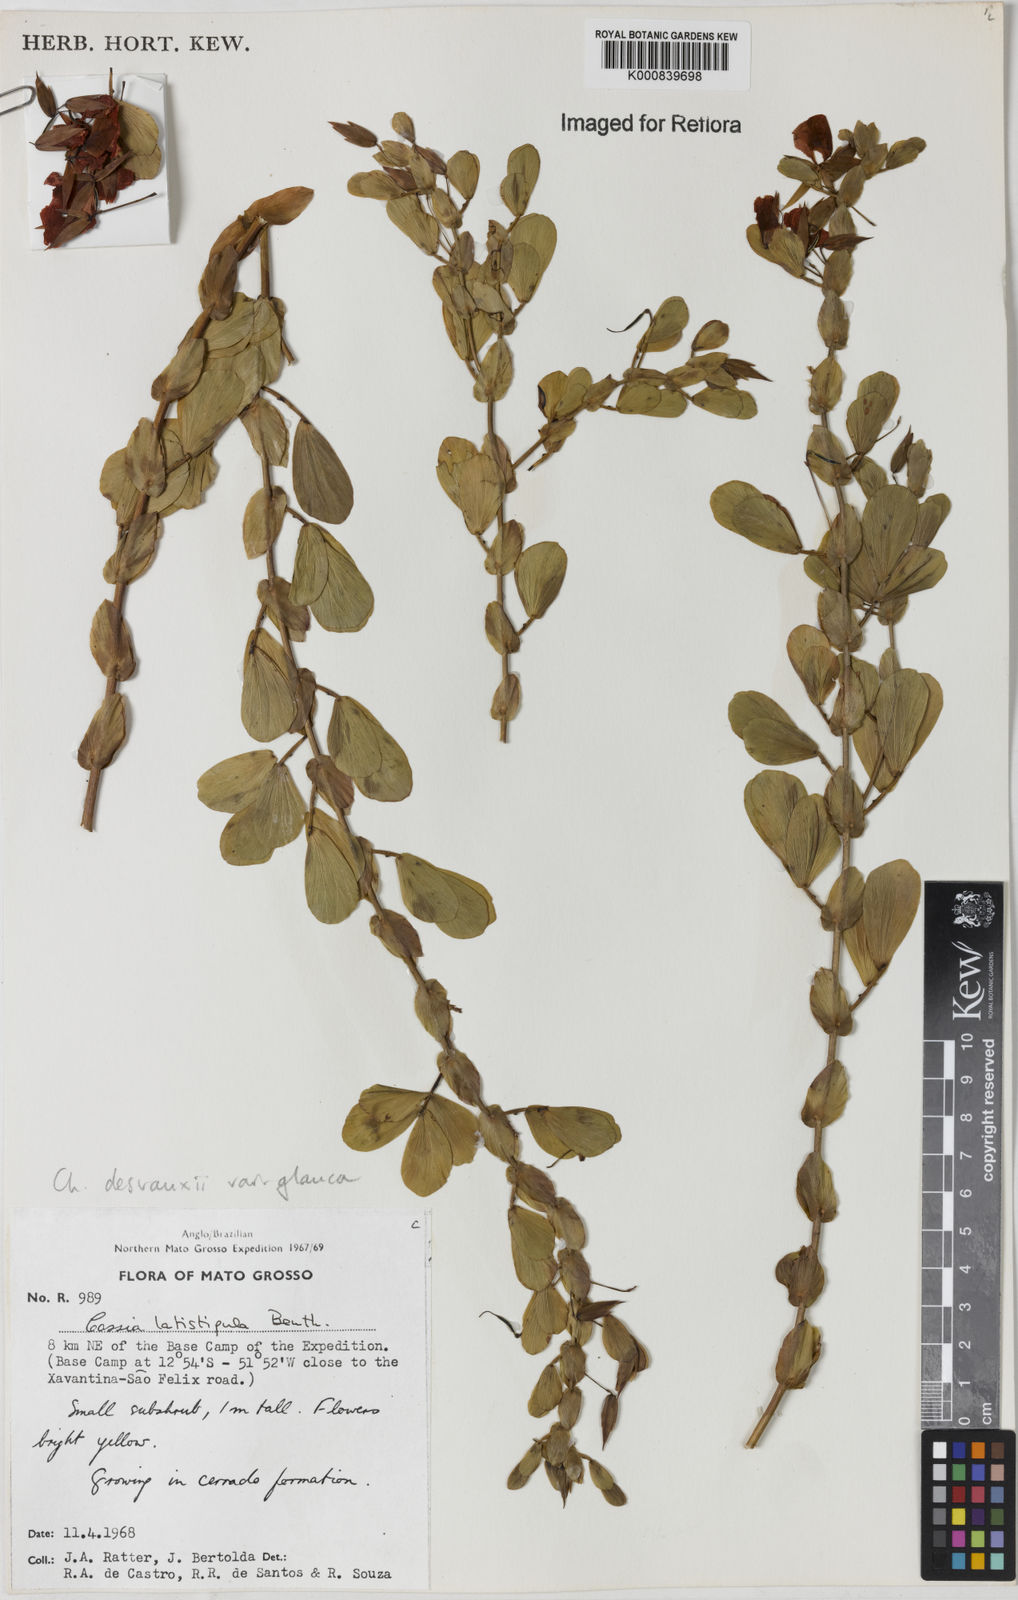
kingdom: Plantae
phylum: Tracheophyta
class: Magnoliopsida
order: Fabales
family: Fabaceae
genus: Chamaecrista
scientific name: Chamaecrista desvauxii
